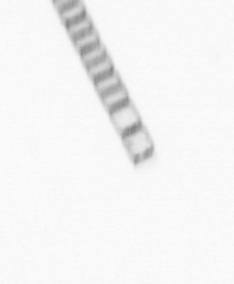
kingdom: Chromista
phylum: Ochrophyta
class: Bacillariophyceae
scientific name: Bacillariophyceae
